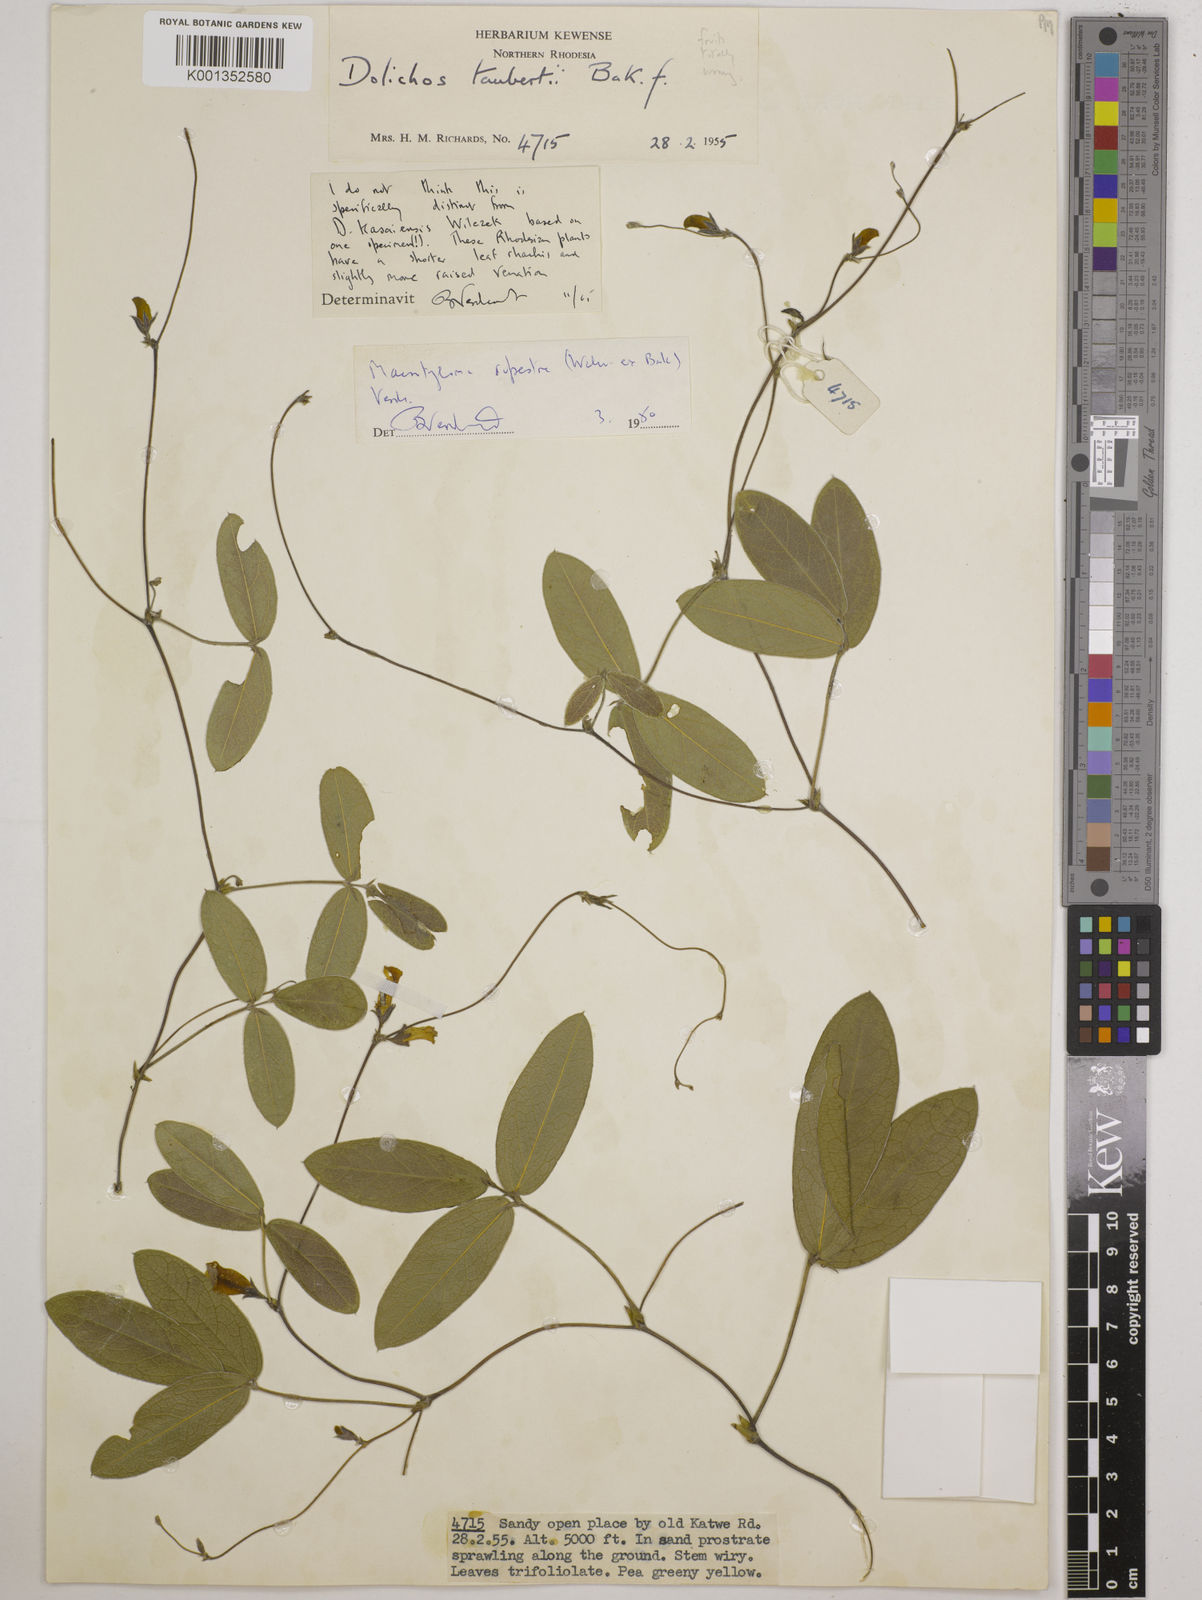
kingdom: Plantae
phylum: Tracheophyta
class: Magnoliopsida
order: Fabales
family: Fabaceae
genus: Macrotyloma
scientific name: Macrotyloma rupestre
